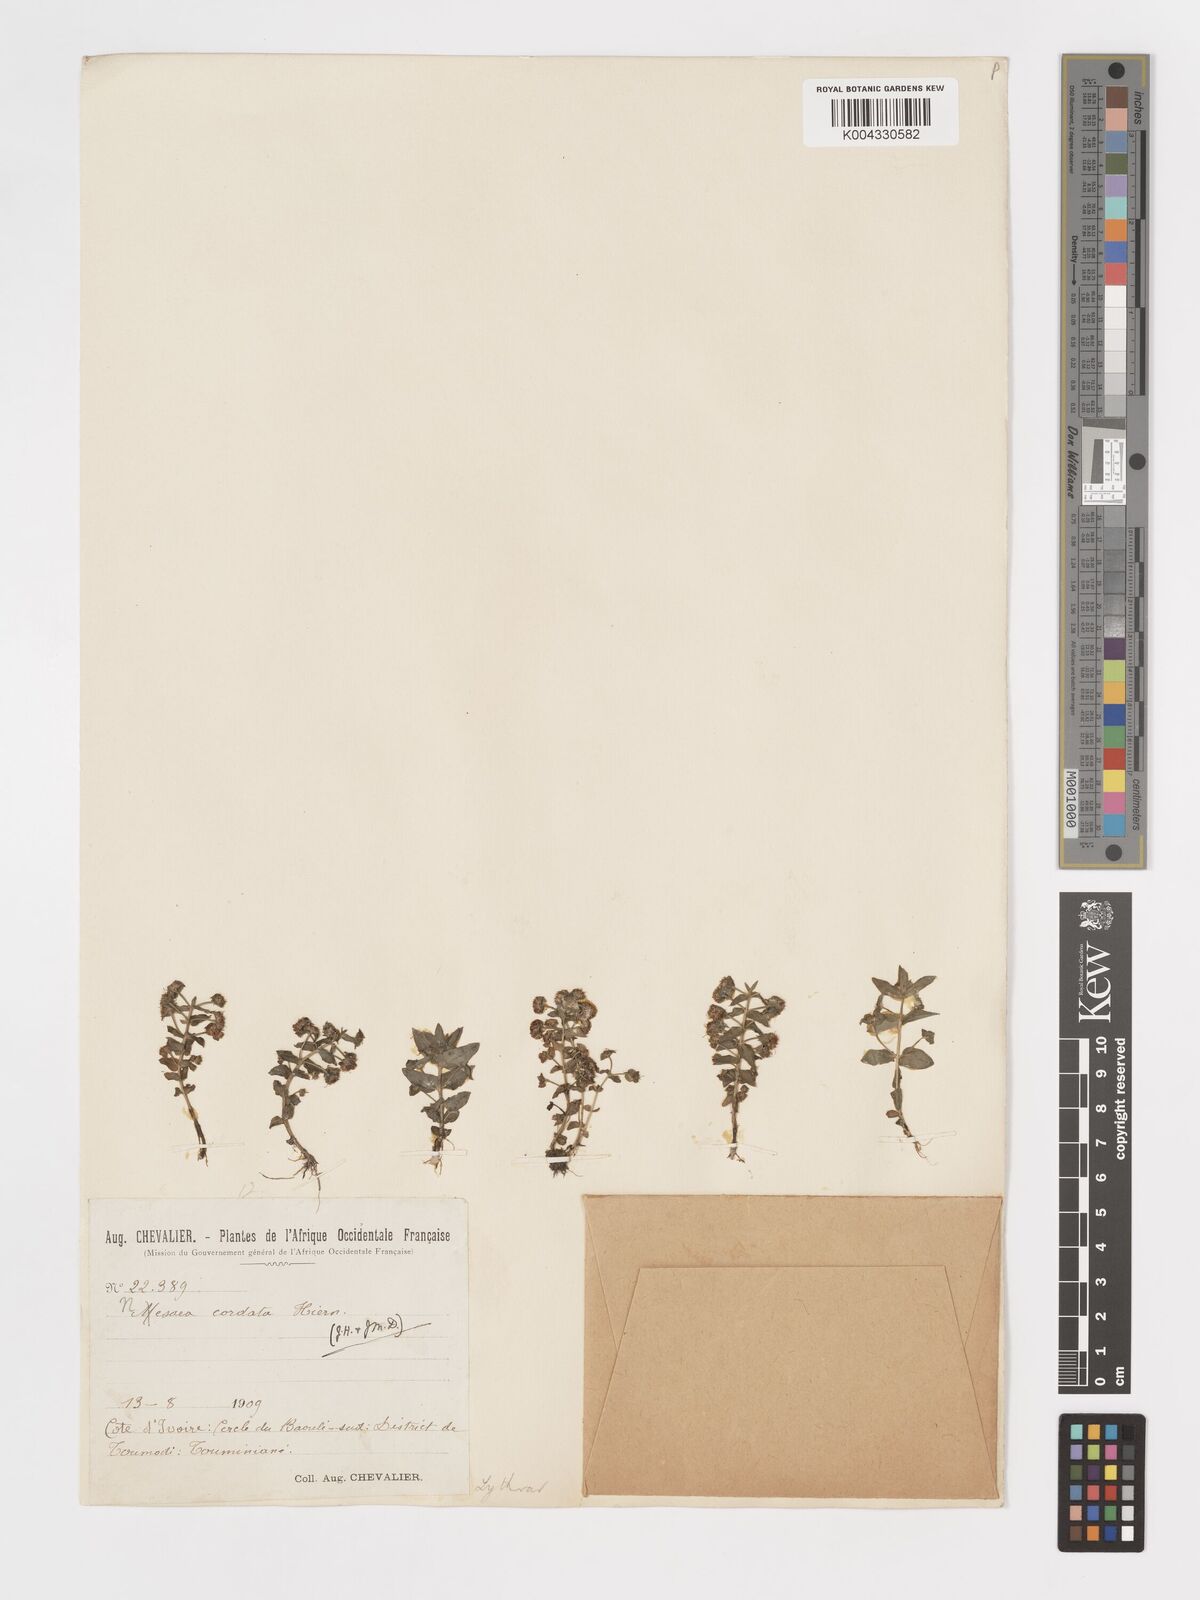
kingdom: Plantae
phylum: Tracheophyta
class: Magnoliopsida
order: Myrtales
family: Lythraceae
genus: Nesaea
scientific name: Nesaea
